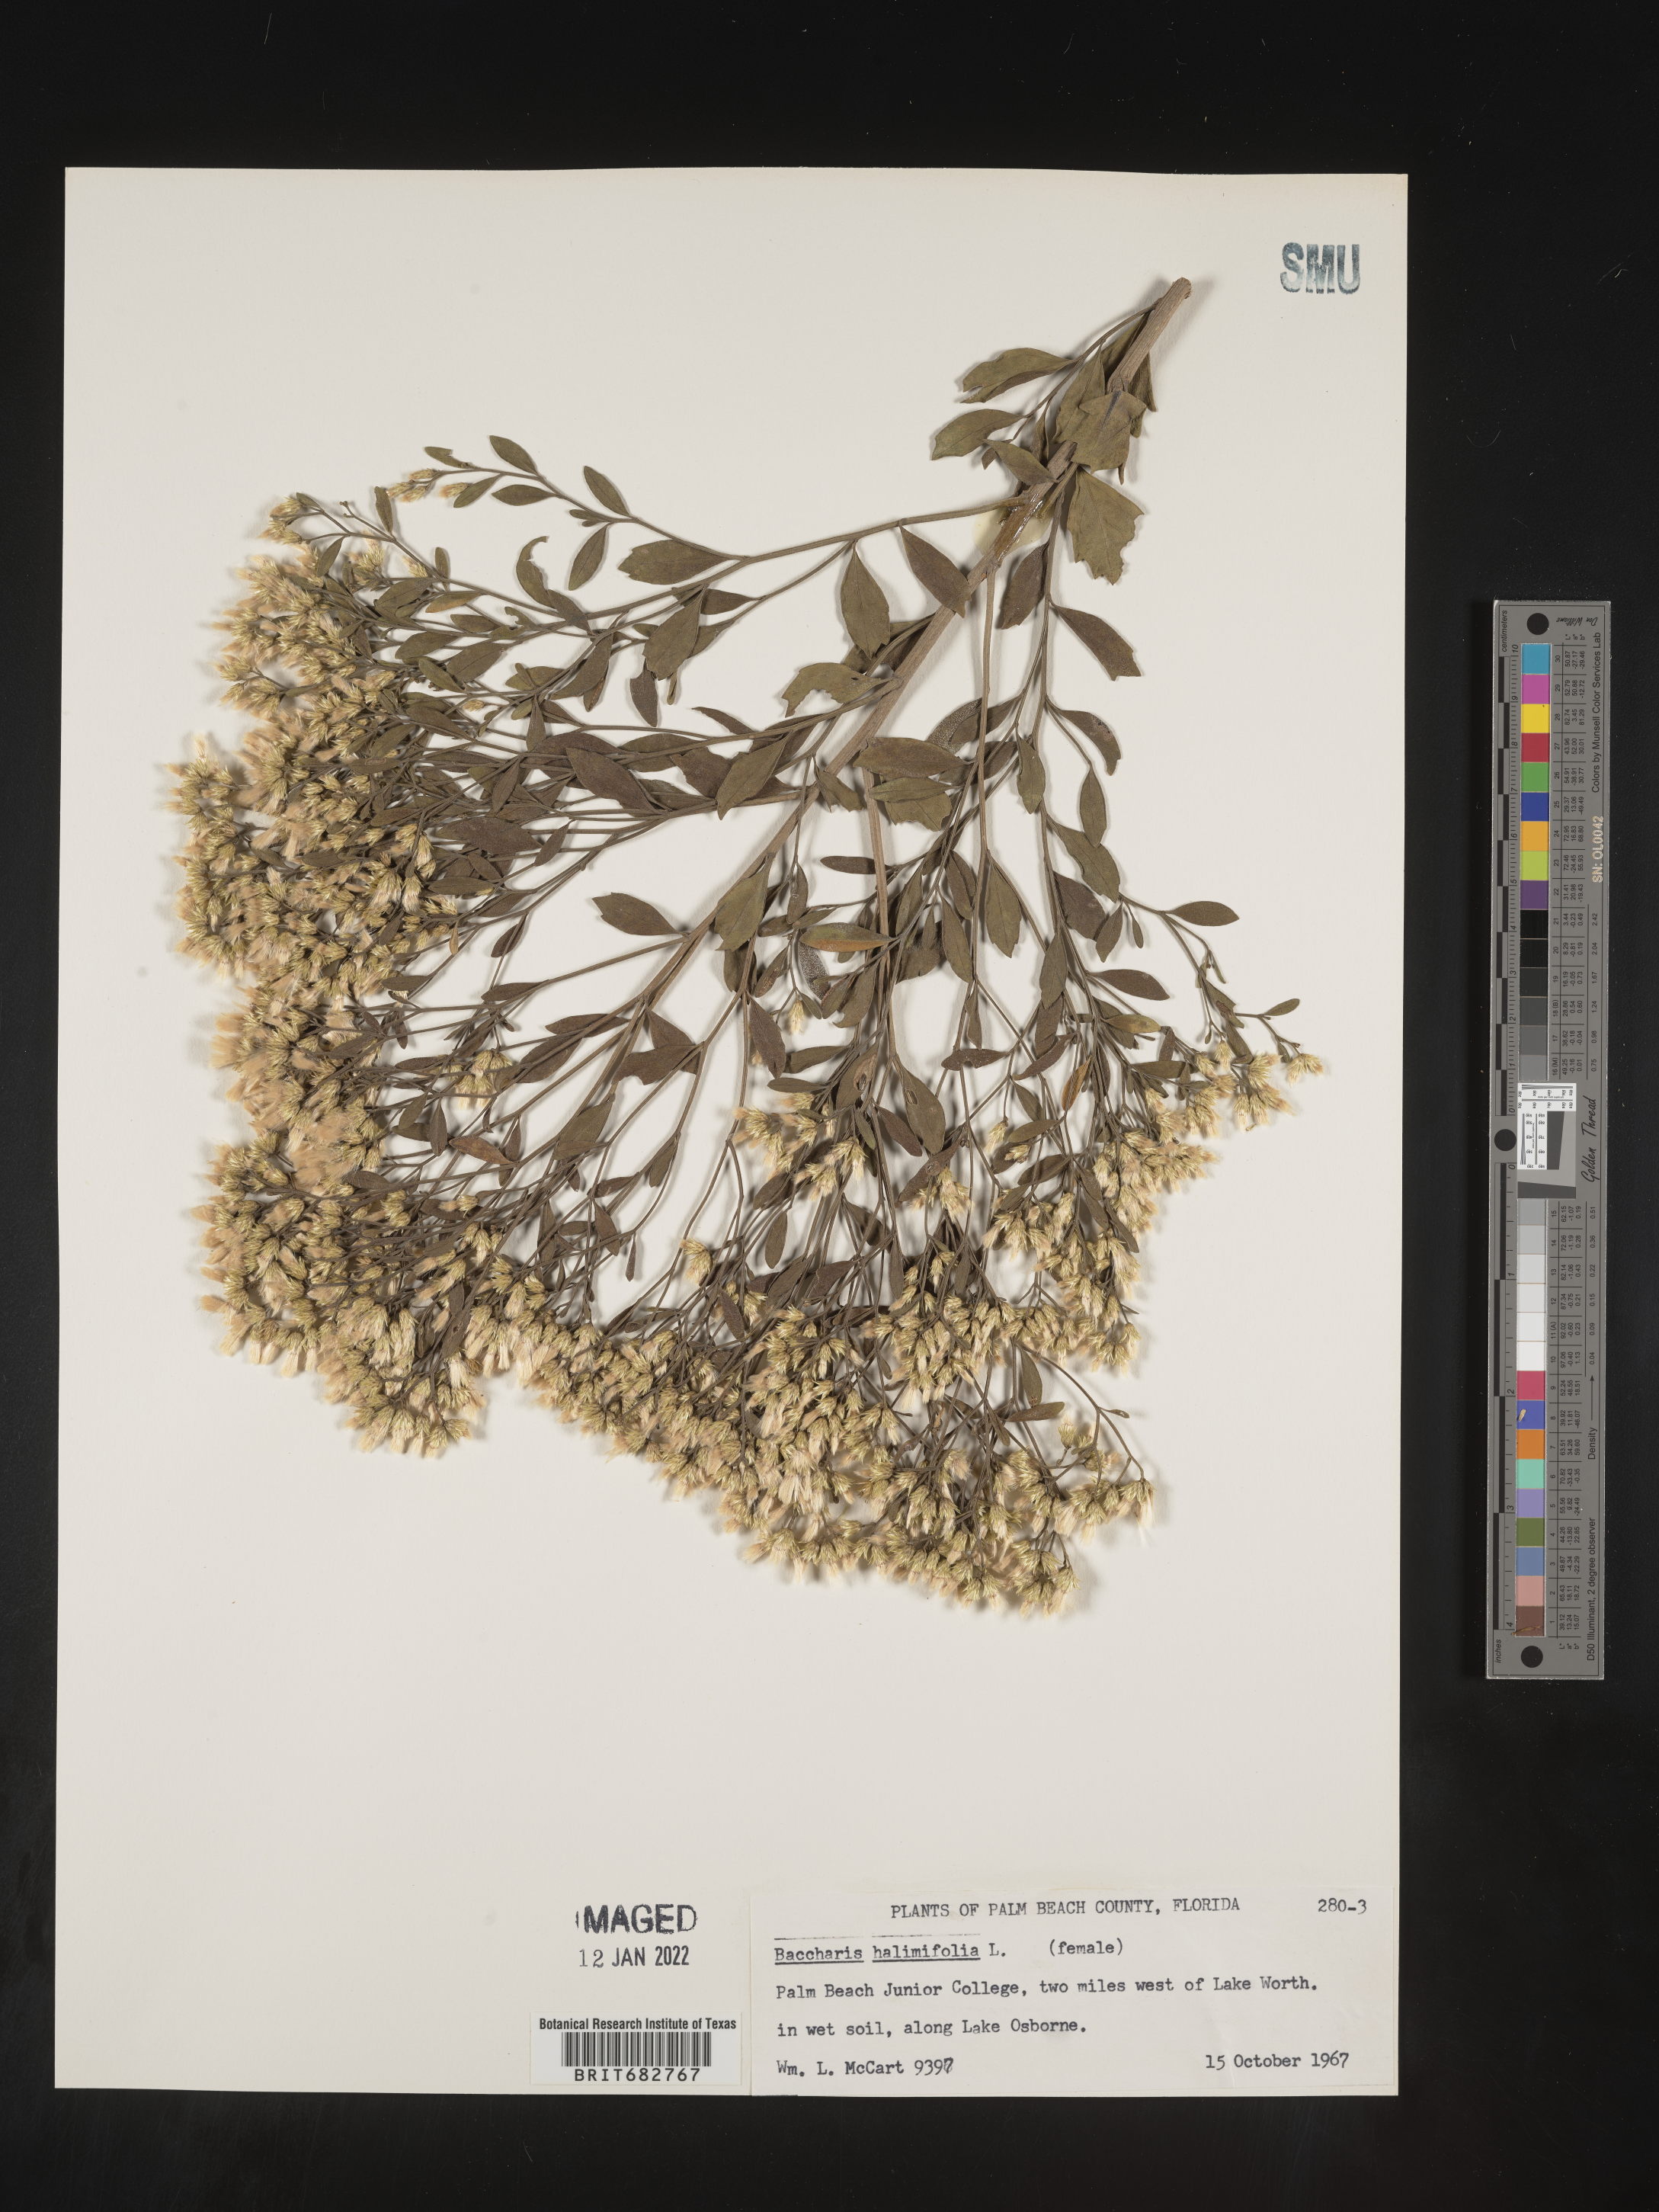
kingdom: Plantae
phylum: Tracheophyta
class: Magnoliopsida
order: Asterales
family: Asteraceae
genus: Nidorella
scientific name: Nidorella ivifolia
